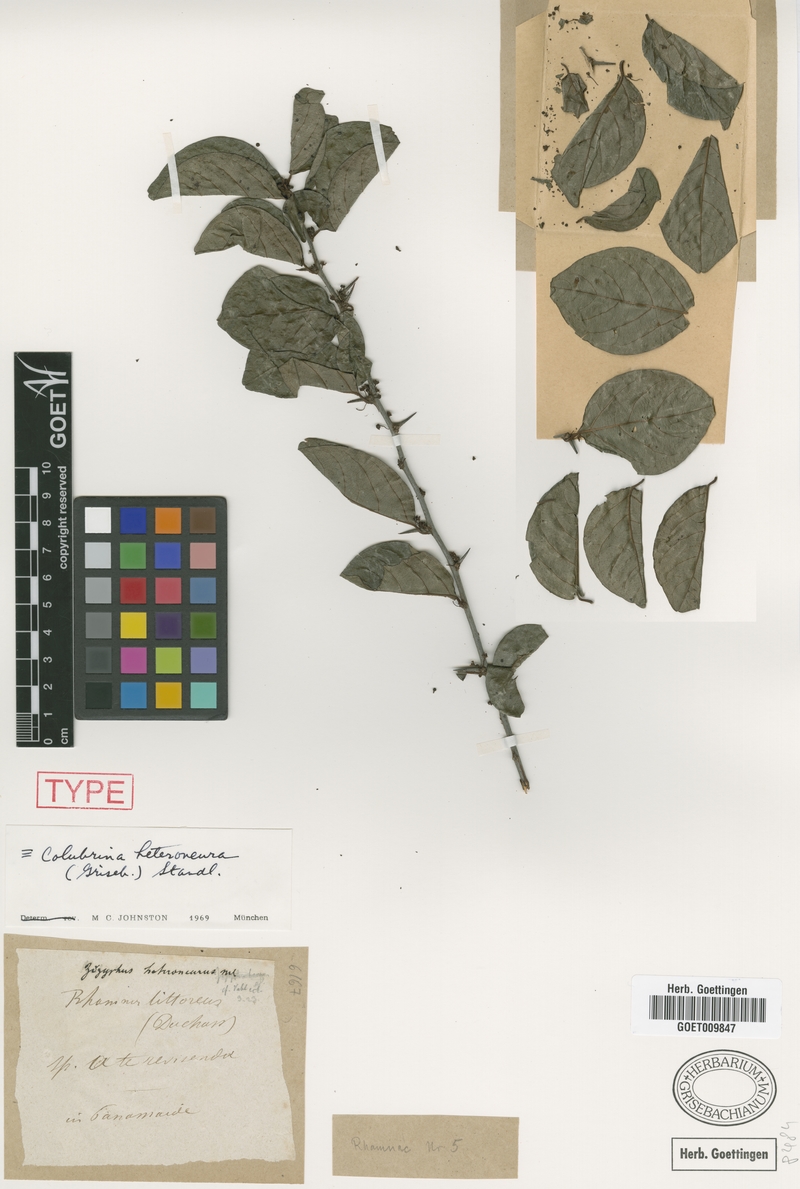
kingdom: Plantae
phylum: Tracheophyta
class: Magnoliopsida
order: Rosales
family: Rhamnaceae
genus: Colubrina
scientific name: Colubrina heteroneura
